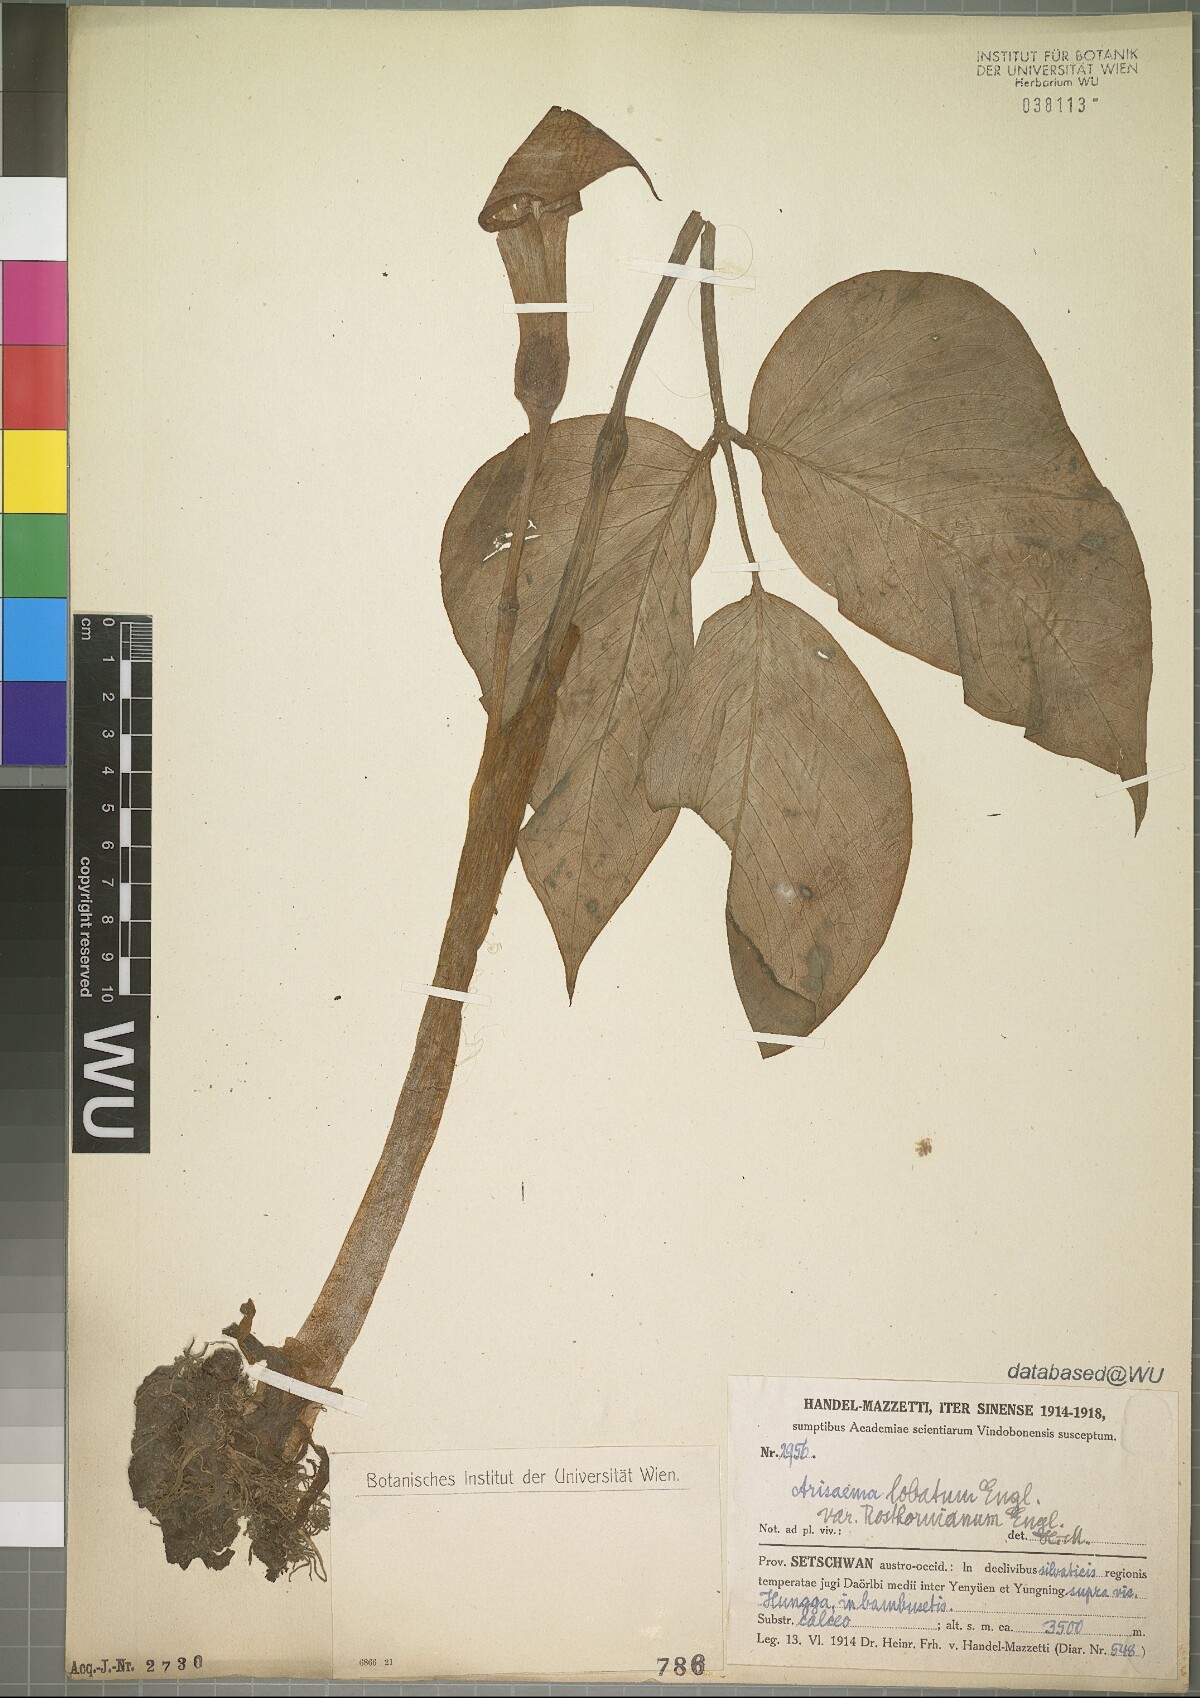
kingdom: Plantae
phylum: Tracheophyta
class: Liliopsida
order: Alismatales
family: Araceae
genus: Arisaema
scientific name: Arisaema lobatum
